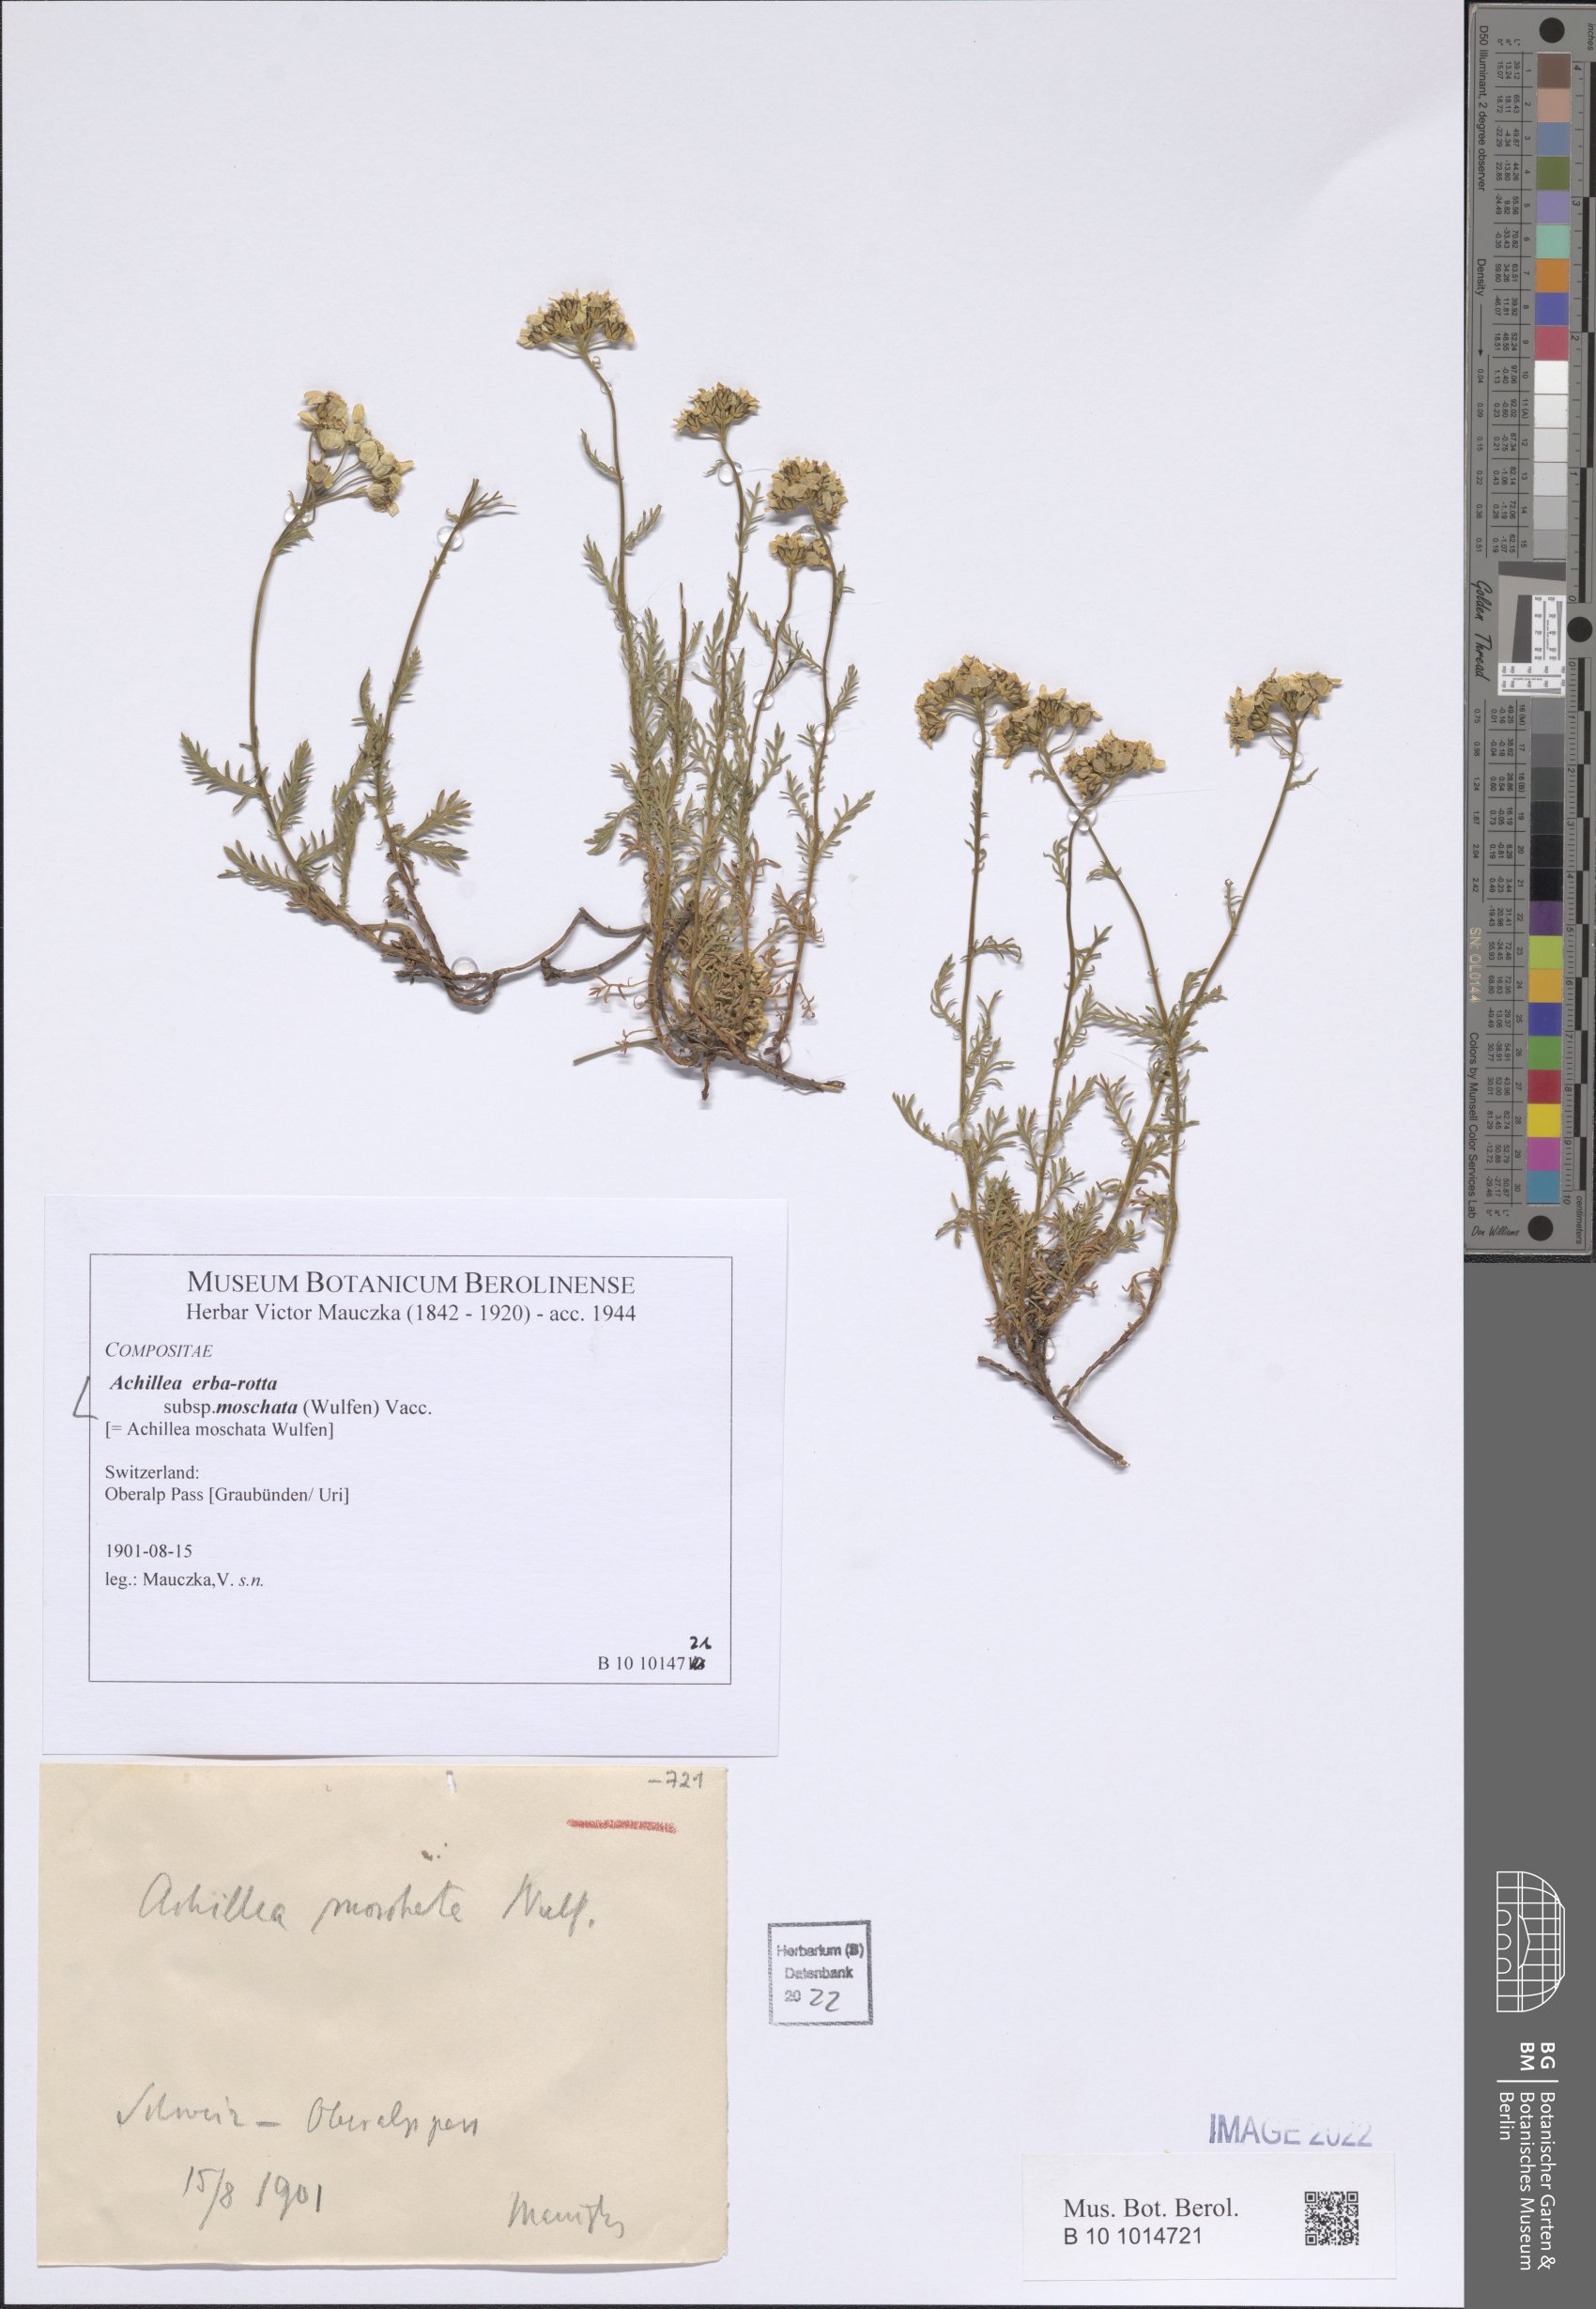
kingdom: Plantae
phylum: Tracheophyta
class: Magnoliopsida
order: Asterales
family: Asteraceae
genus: Achillea
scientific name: Achillea erba-rotta
